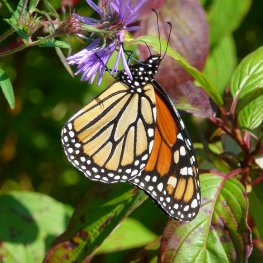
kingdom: Animalia
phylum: Arthropoda
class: Insecta
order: Lepidoptera
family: Nymphalidae
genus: Danaus
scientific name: Danaus plexippus
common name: Monarch
